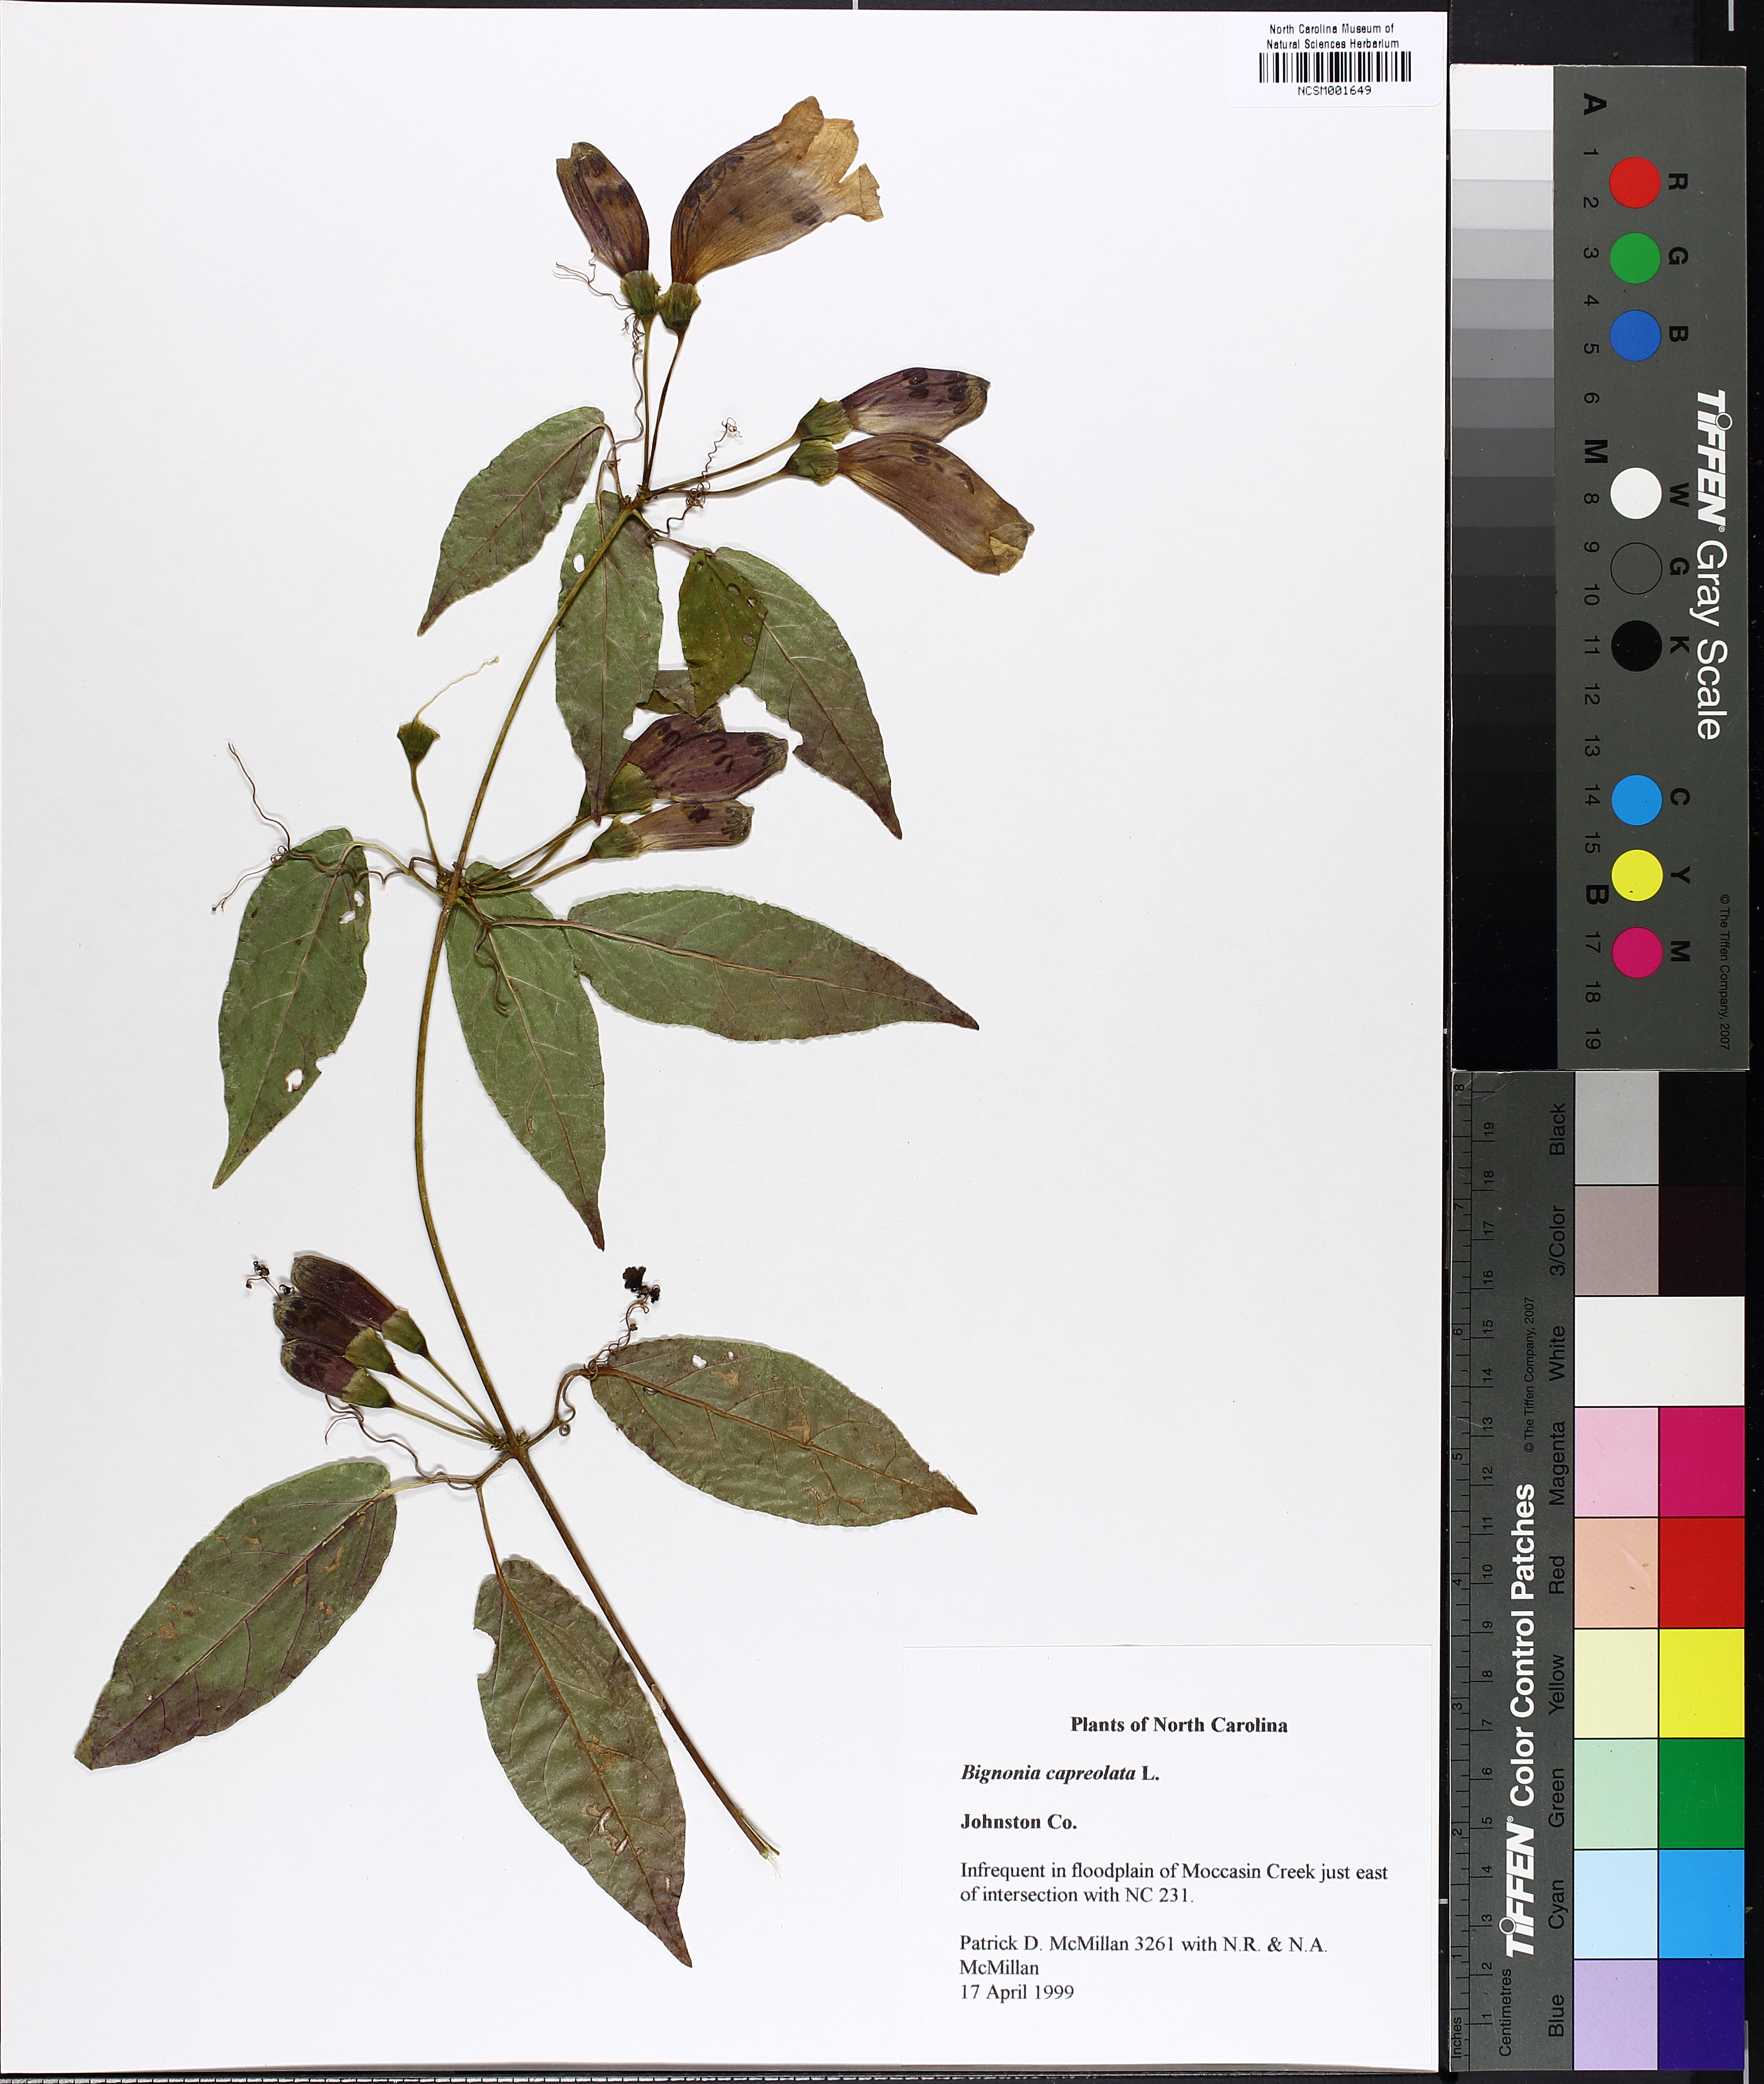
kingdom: Plantae
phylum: Tracheophyta
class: Magnoliopsida
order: Lamiales
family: Bignoniaceae
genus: Bignonia
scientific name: Bignonia capreolata
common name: Crossvine
